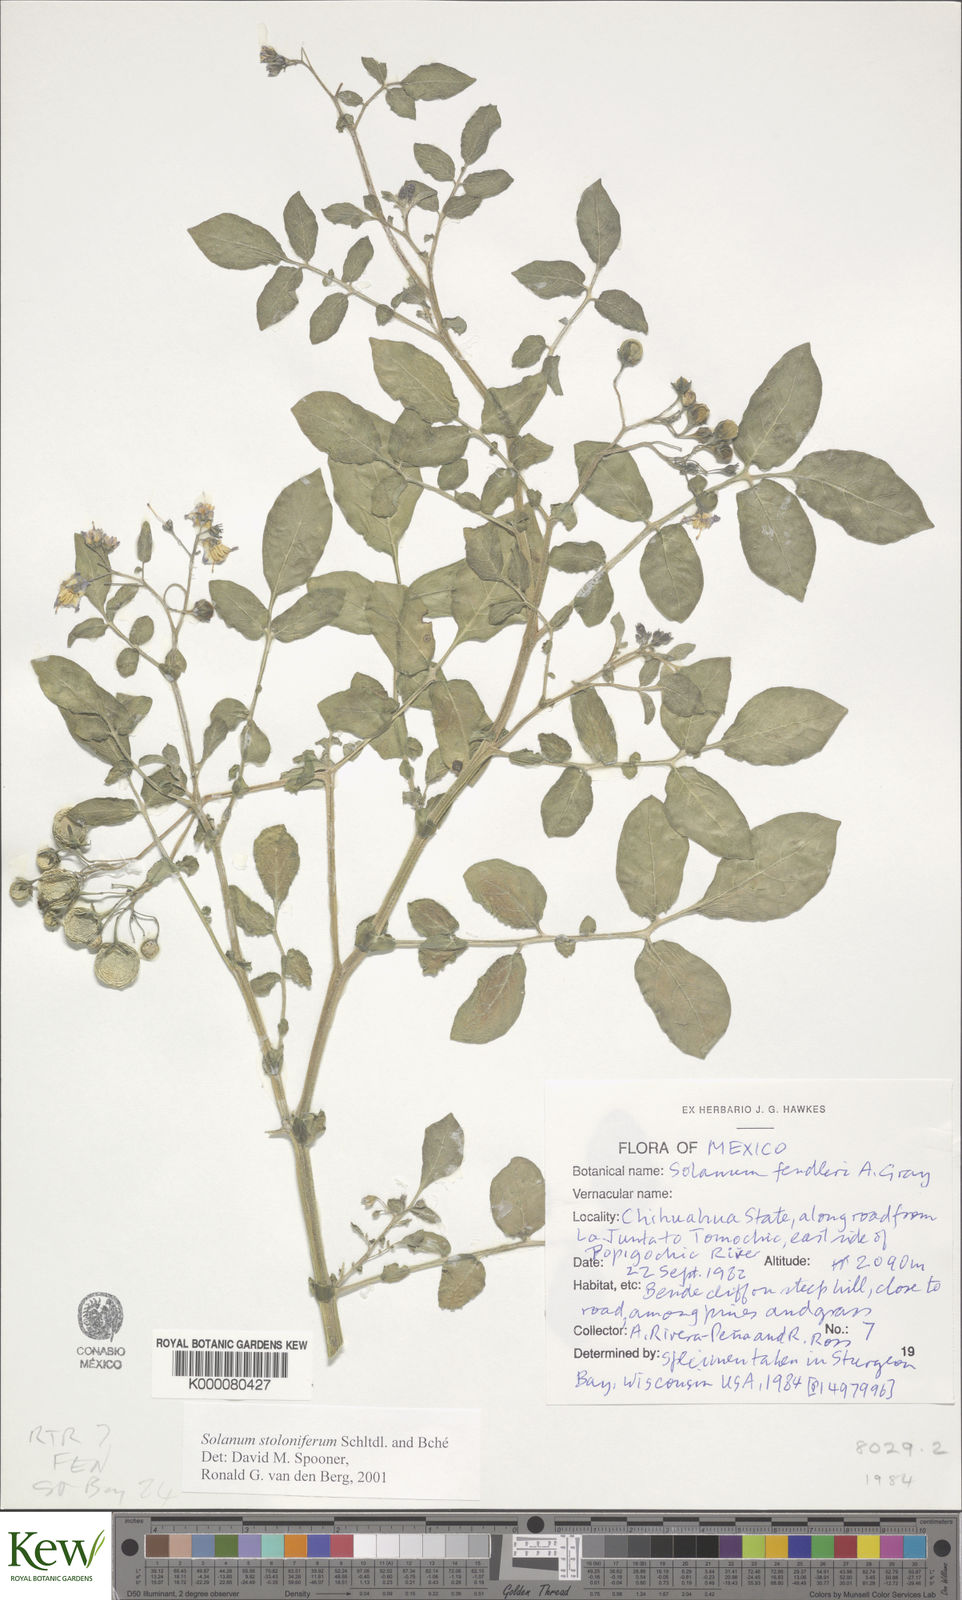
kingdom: Plantae
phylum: Tracheophyta
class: Magnoliopsida
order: Solanales
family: Solanaceae
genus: Solanum
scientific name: Solanum stoloniferum
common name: Fendler's nighshade
